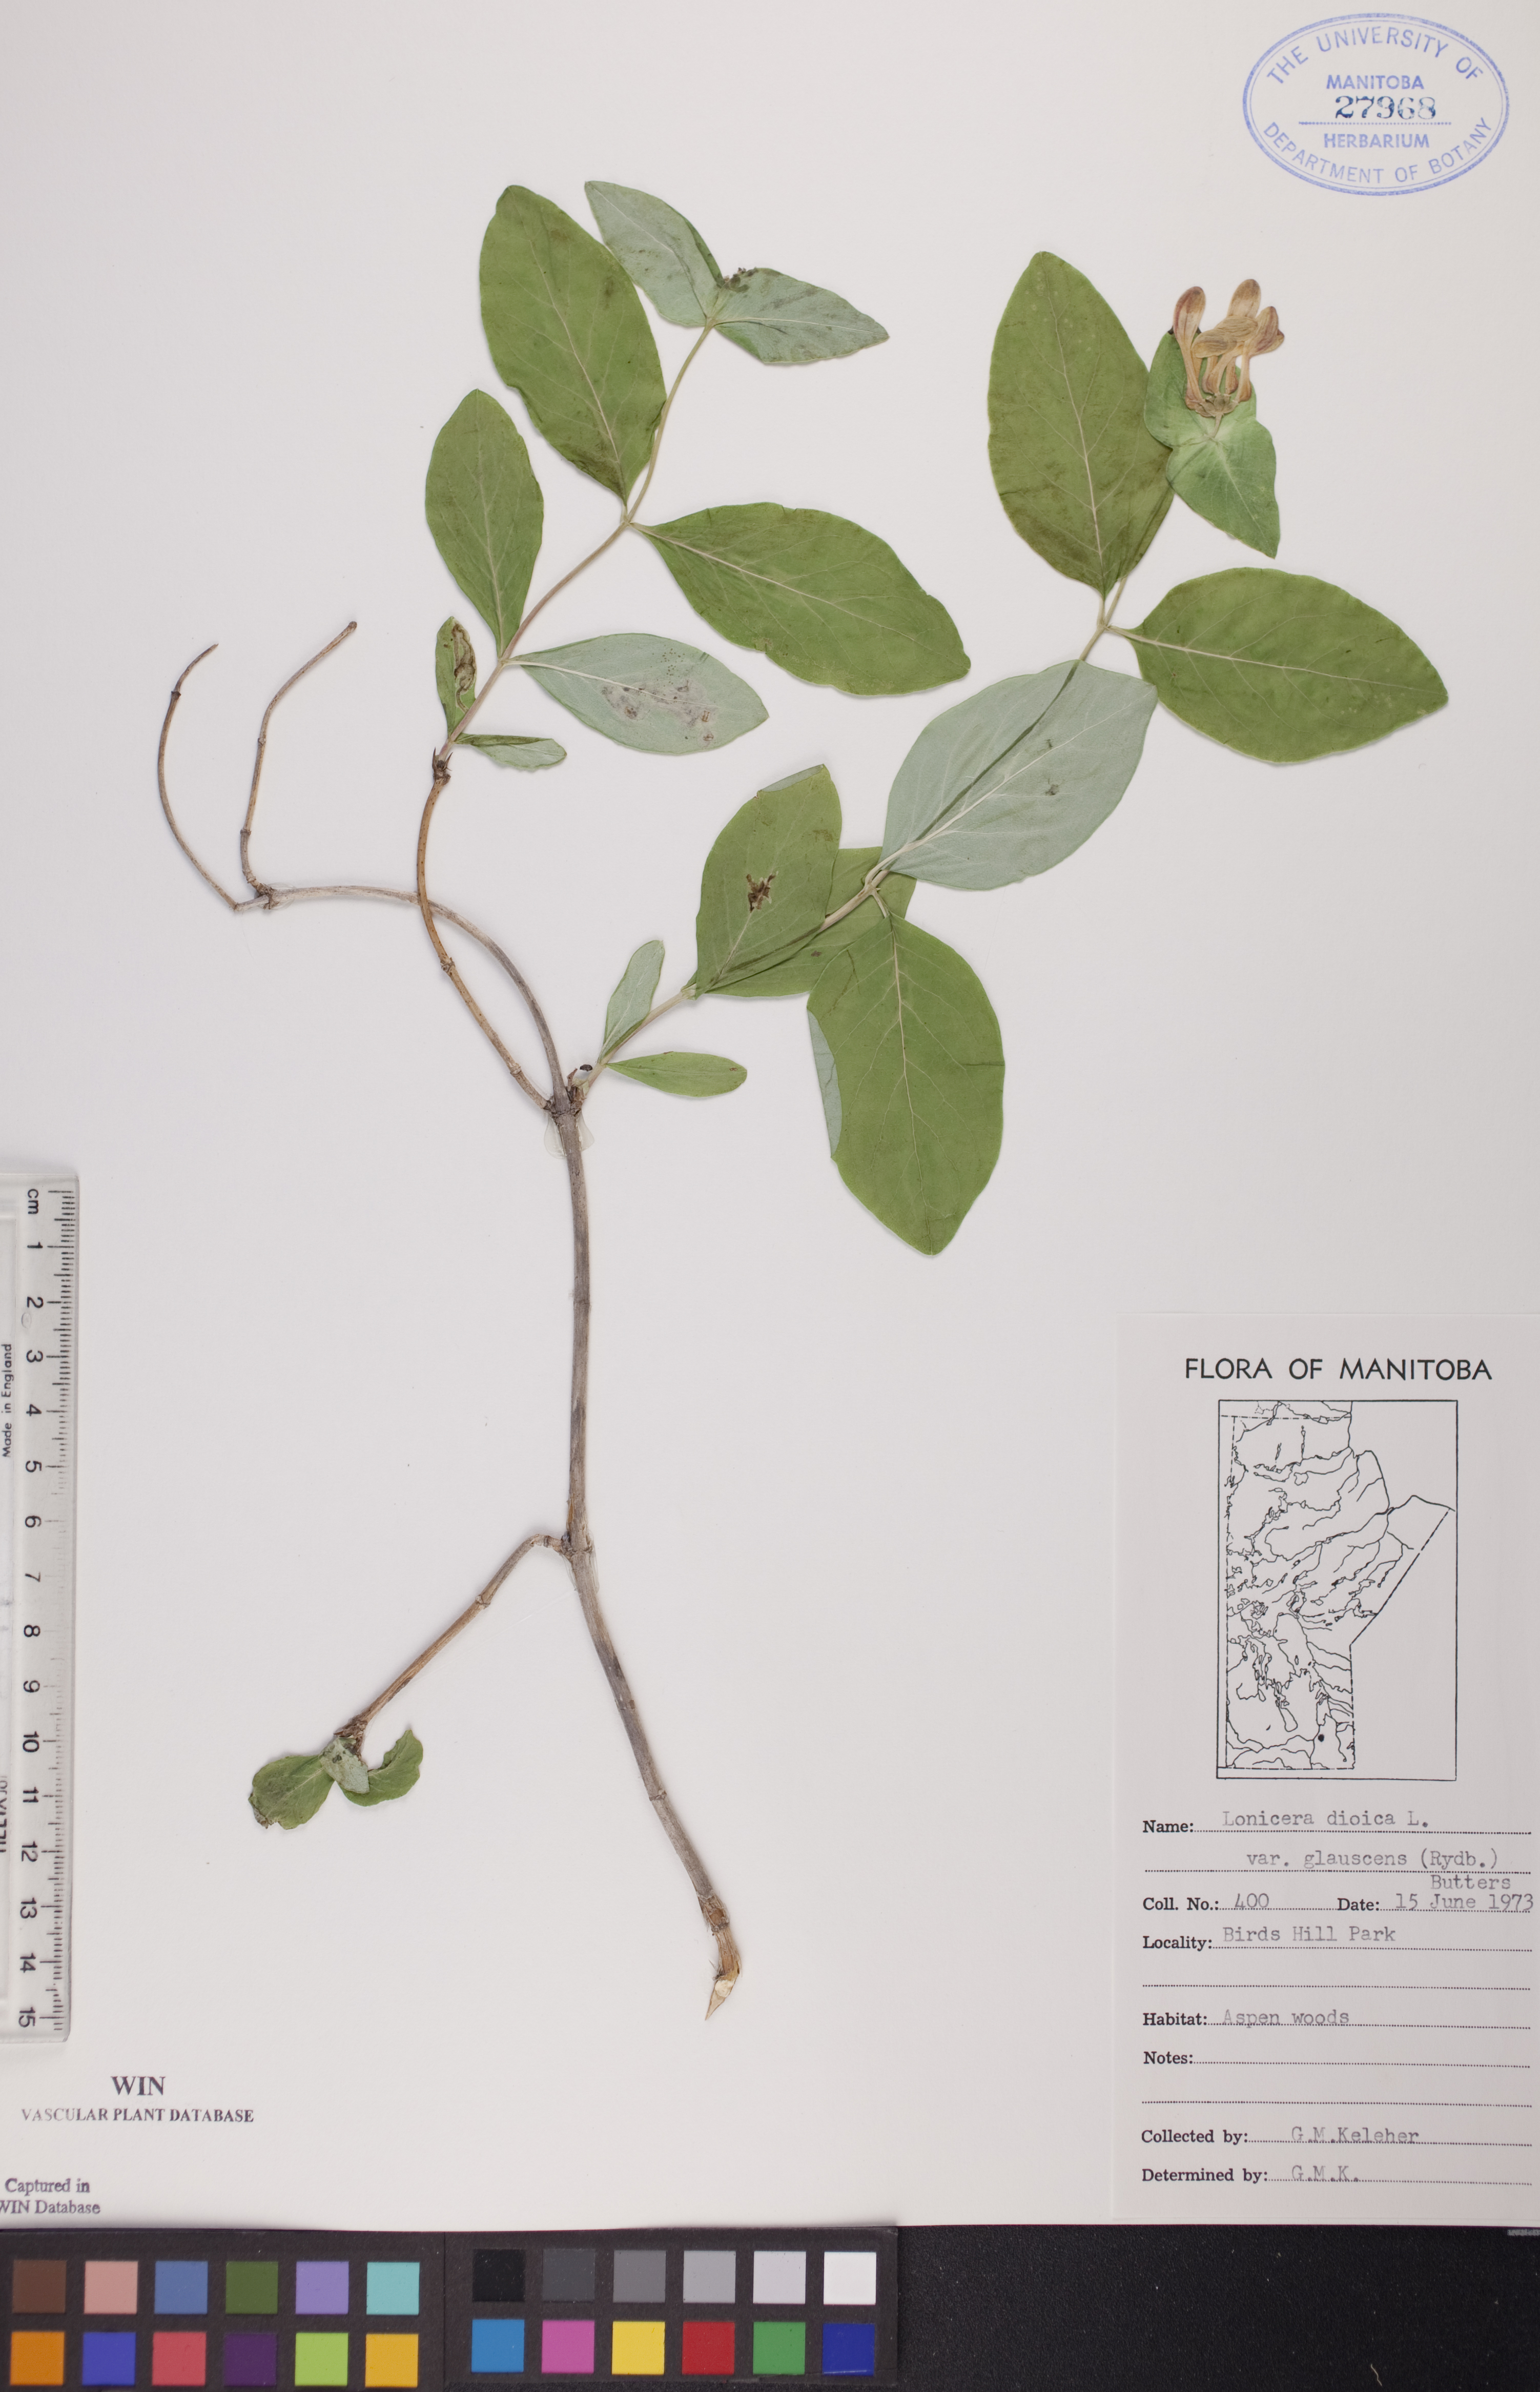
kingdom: Plantae
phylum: Tracheophyta
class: Magnoliopsida
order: Dipsacales
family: Caprifoliaceae
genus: Lonicera
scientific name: Lonicera dioica
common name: Limber honeysuckle
